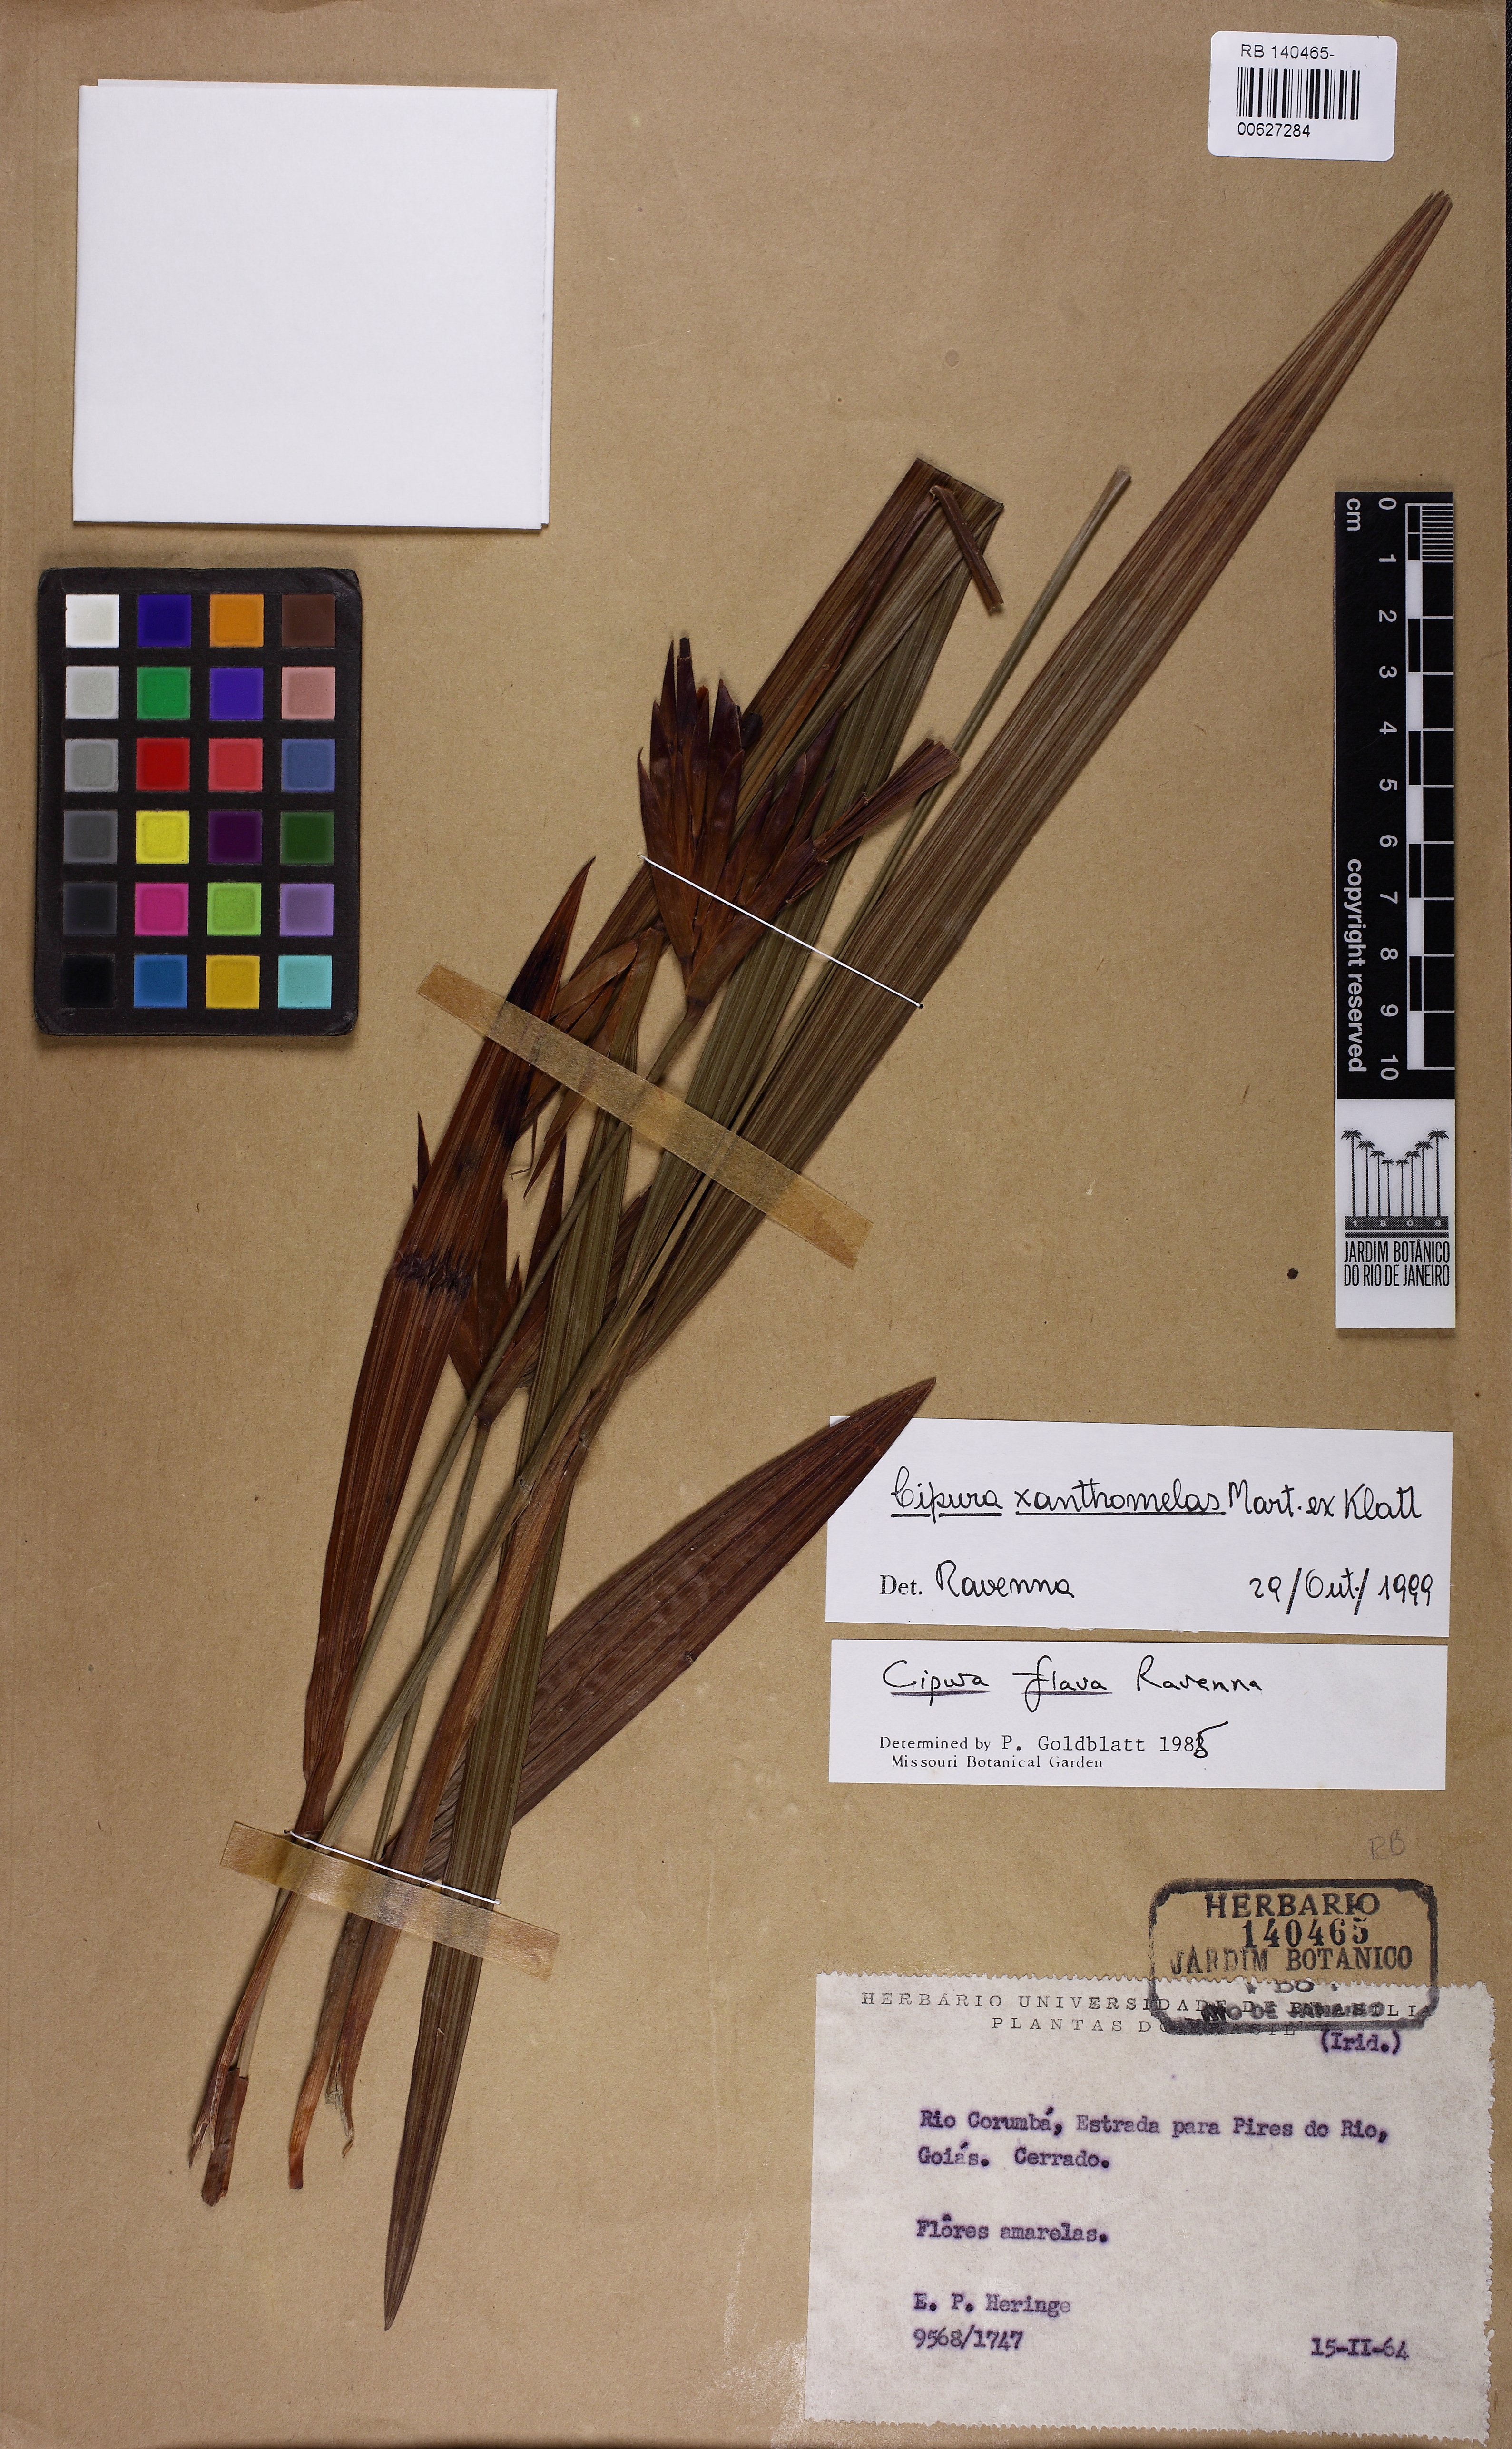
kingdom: Plantae
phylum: Tracheophyta
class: Liliopsida
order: Asparagales
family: Iridaceae
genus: Cipura
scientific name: Cipura xanthomelas
